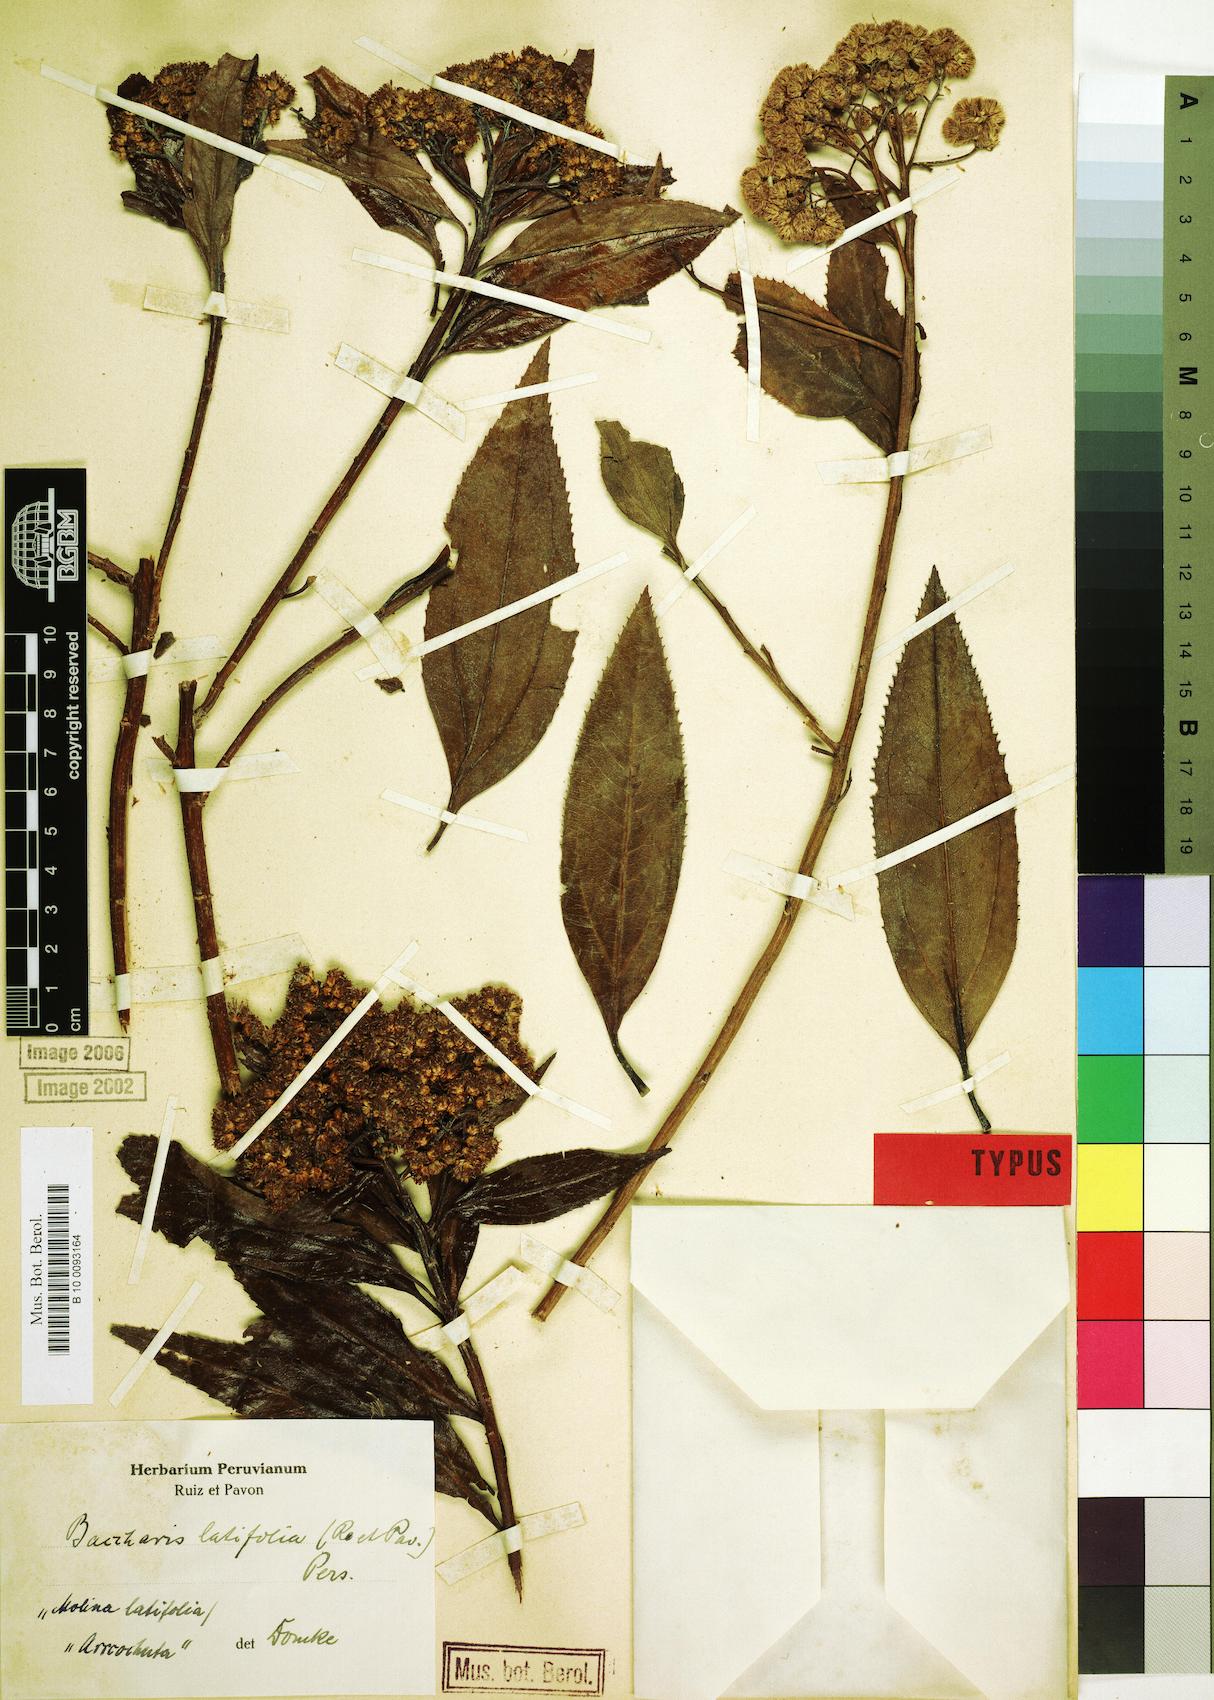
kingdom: Plantae
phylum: Tracheophyta
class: Magnoliopsida
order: Asterales
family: Asteraceae
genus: Baccharis
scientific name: Baccharis latifolia
